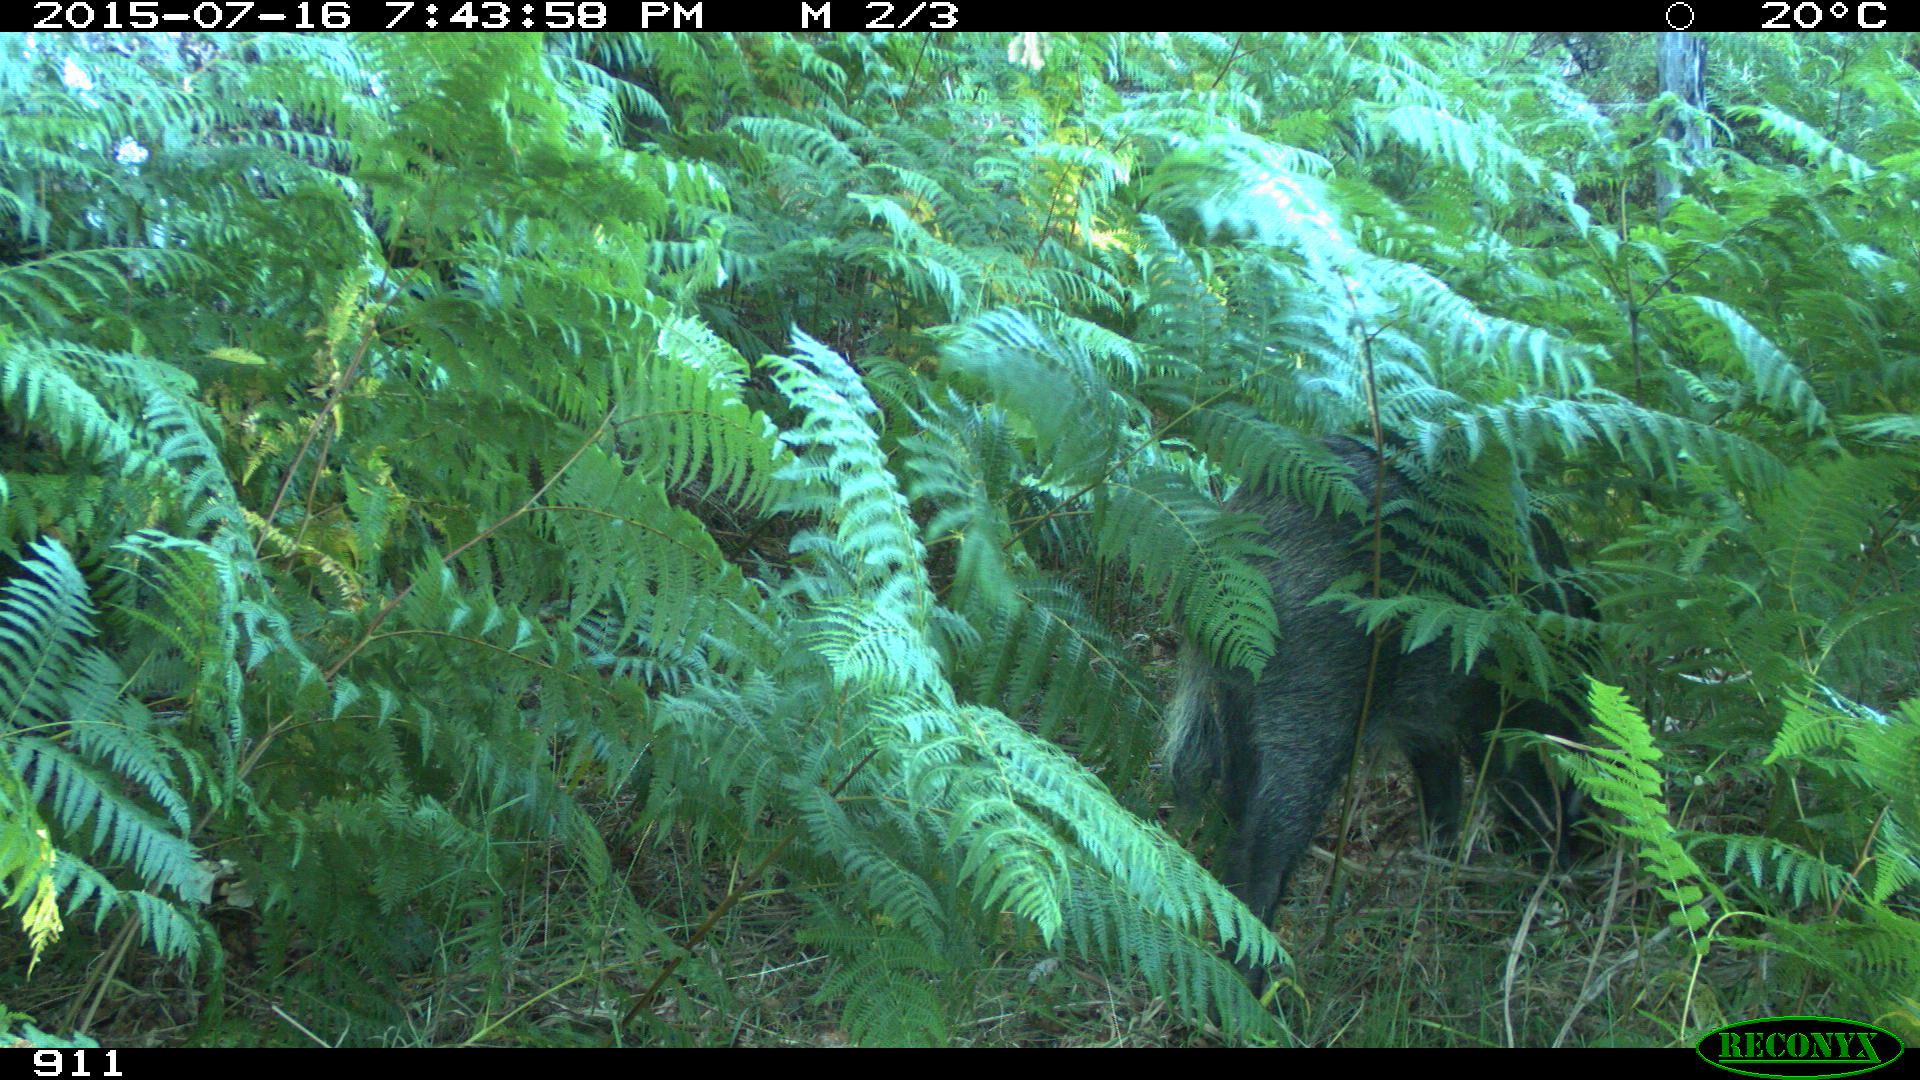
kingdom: Animalia
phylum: Chordata
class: Mammalia
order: Artiodactyla
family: Suidae
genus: Sus
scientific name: Sus scrofa
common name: Wild boar
